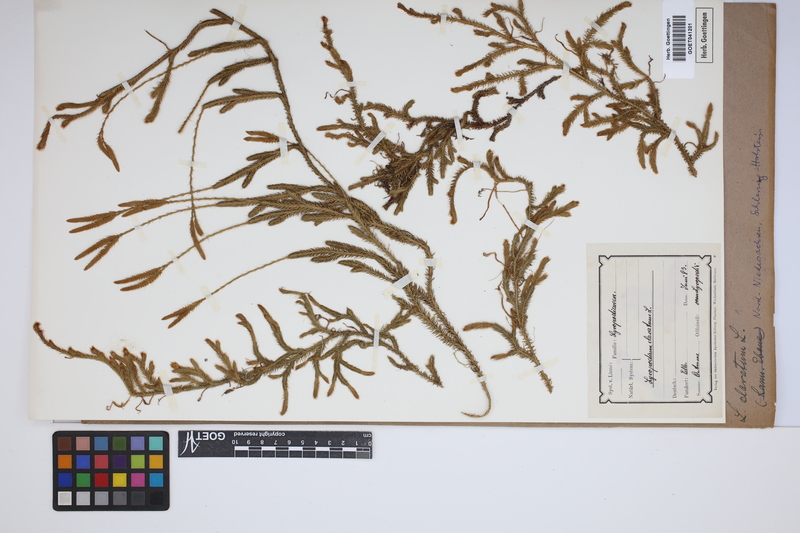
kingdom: Plantae
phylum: Tracheophyta
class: Lycopodiopsida
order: Lycopodiales
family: Lycopodiaceae
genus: Lycopodium
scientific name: Lycopodium clavatum
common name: Stag's-horn clubmoss
